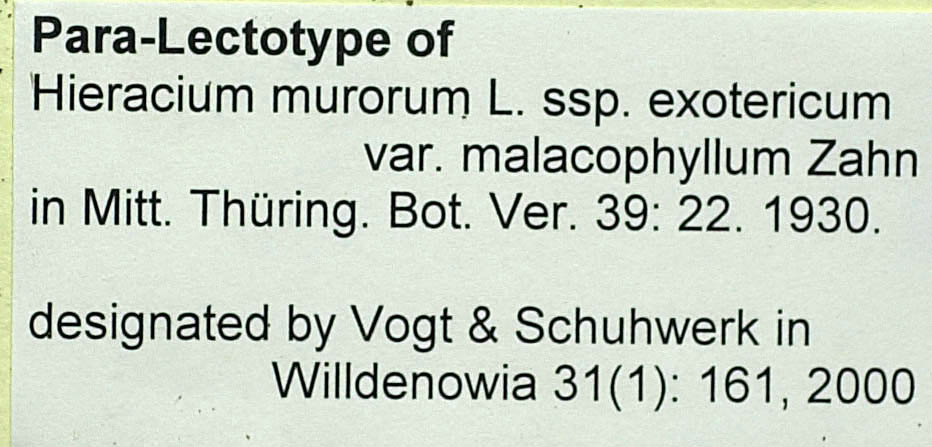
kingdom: Plantae
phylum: Tracheophyta
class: Magnoliopsida
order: Asterales
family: Asteraceae
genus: Hieracium
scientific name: Hieracium murorum
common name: Wall hawkweed
